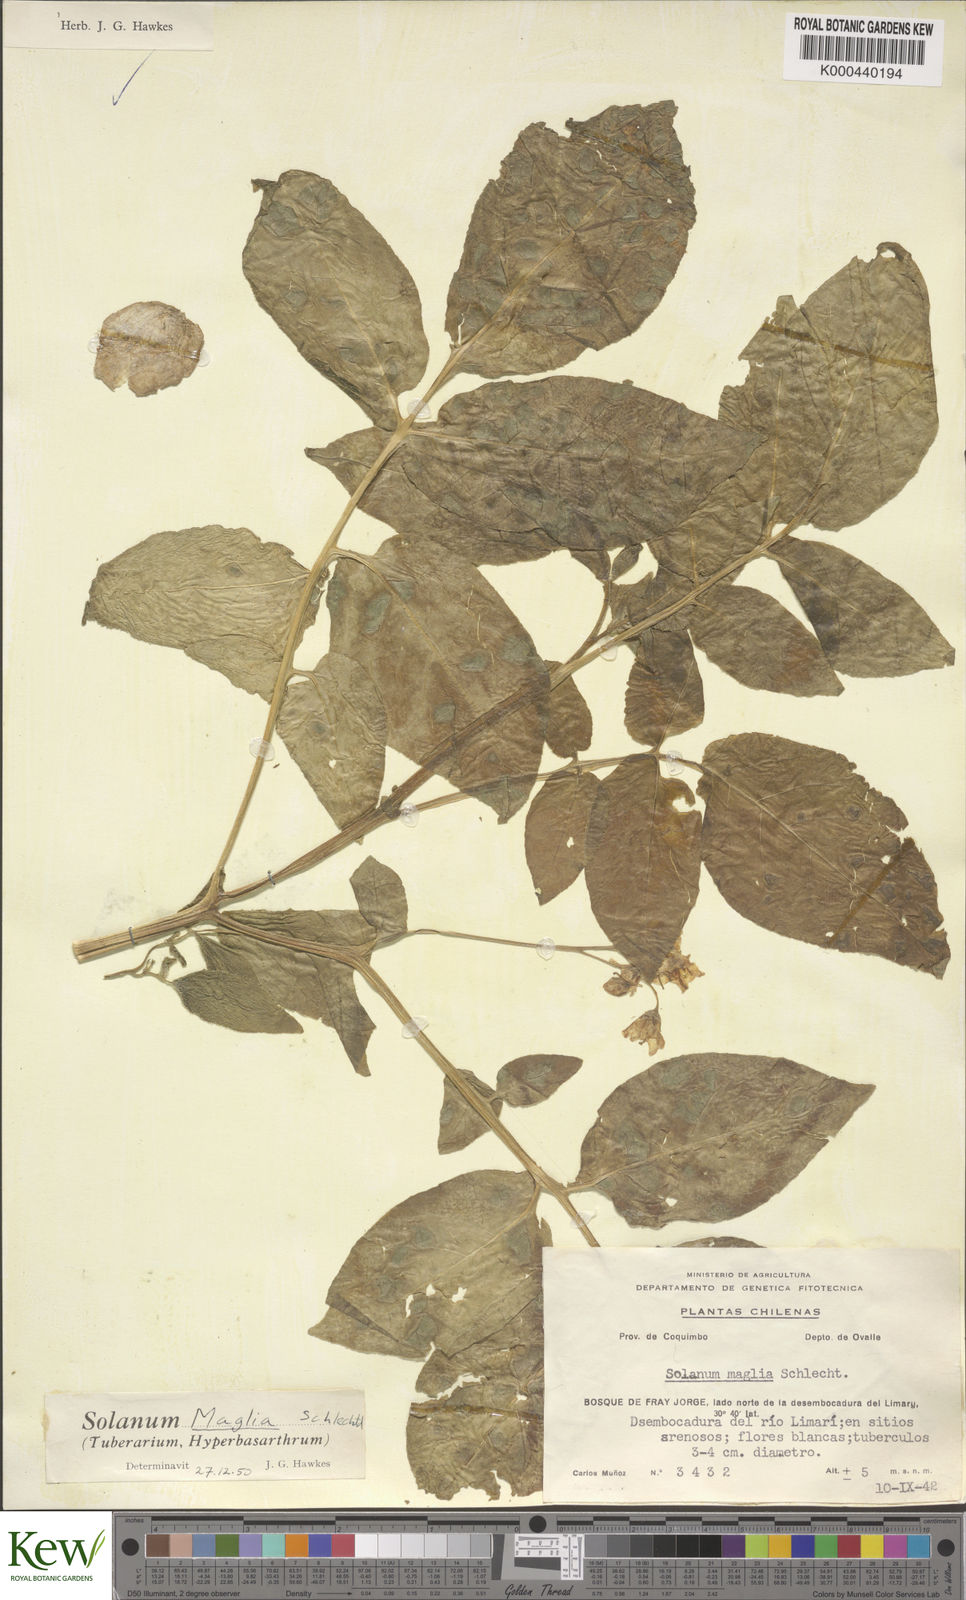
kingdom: Plantae
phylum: Tracheophyta
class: Magnoliopsida
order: Solanales
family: Solanaceae
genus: Solanum
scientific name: Solanum maglia
